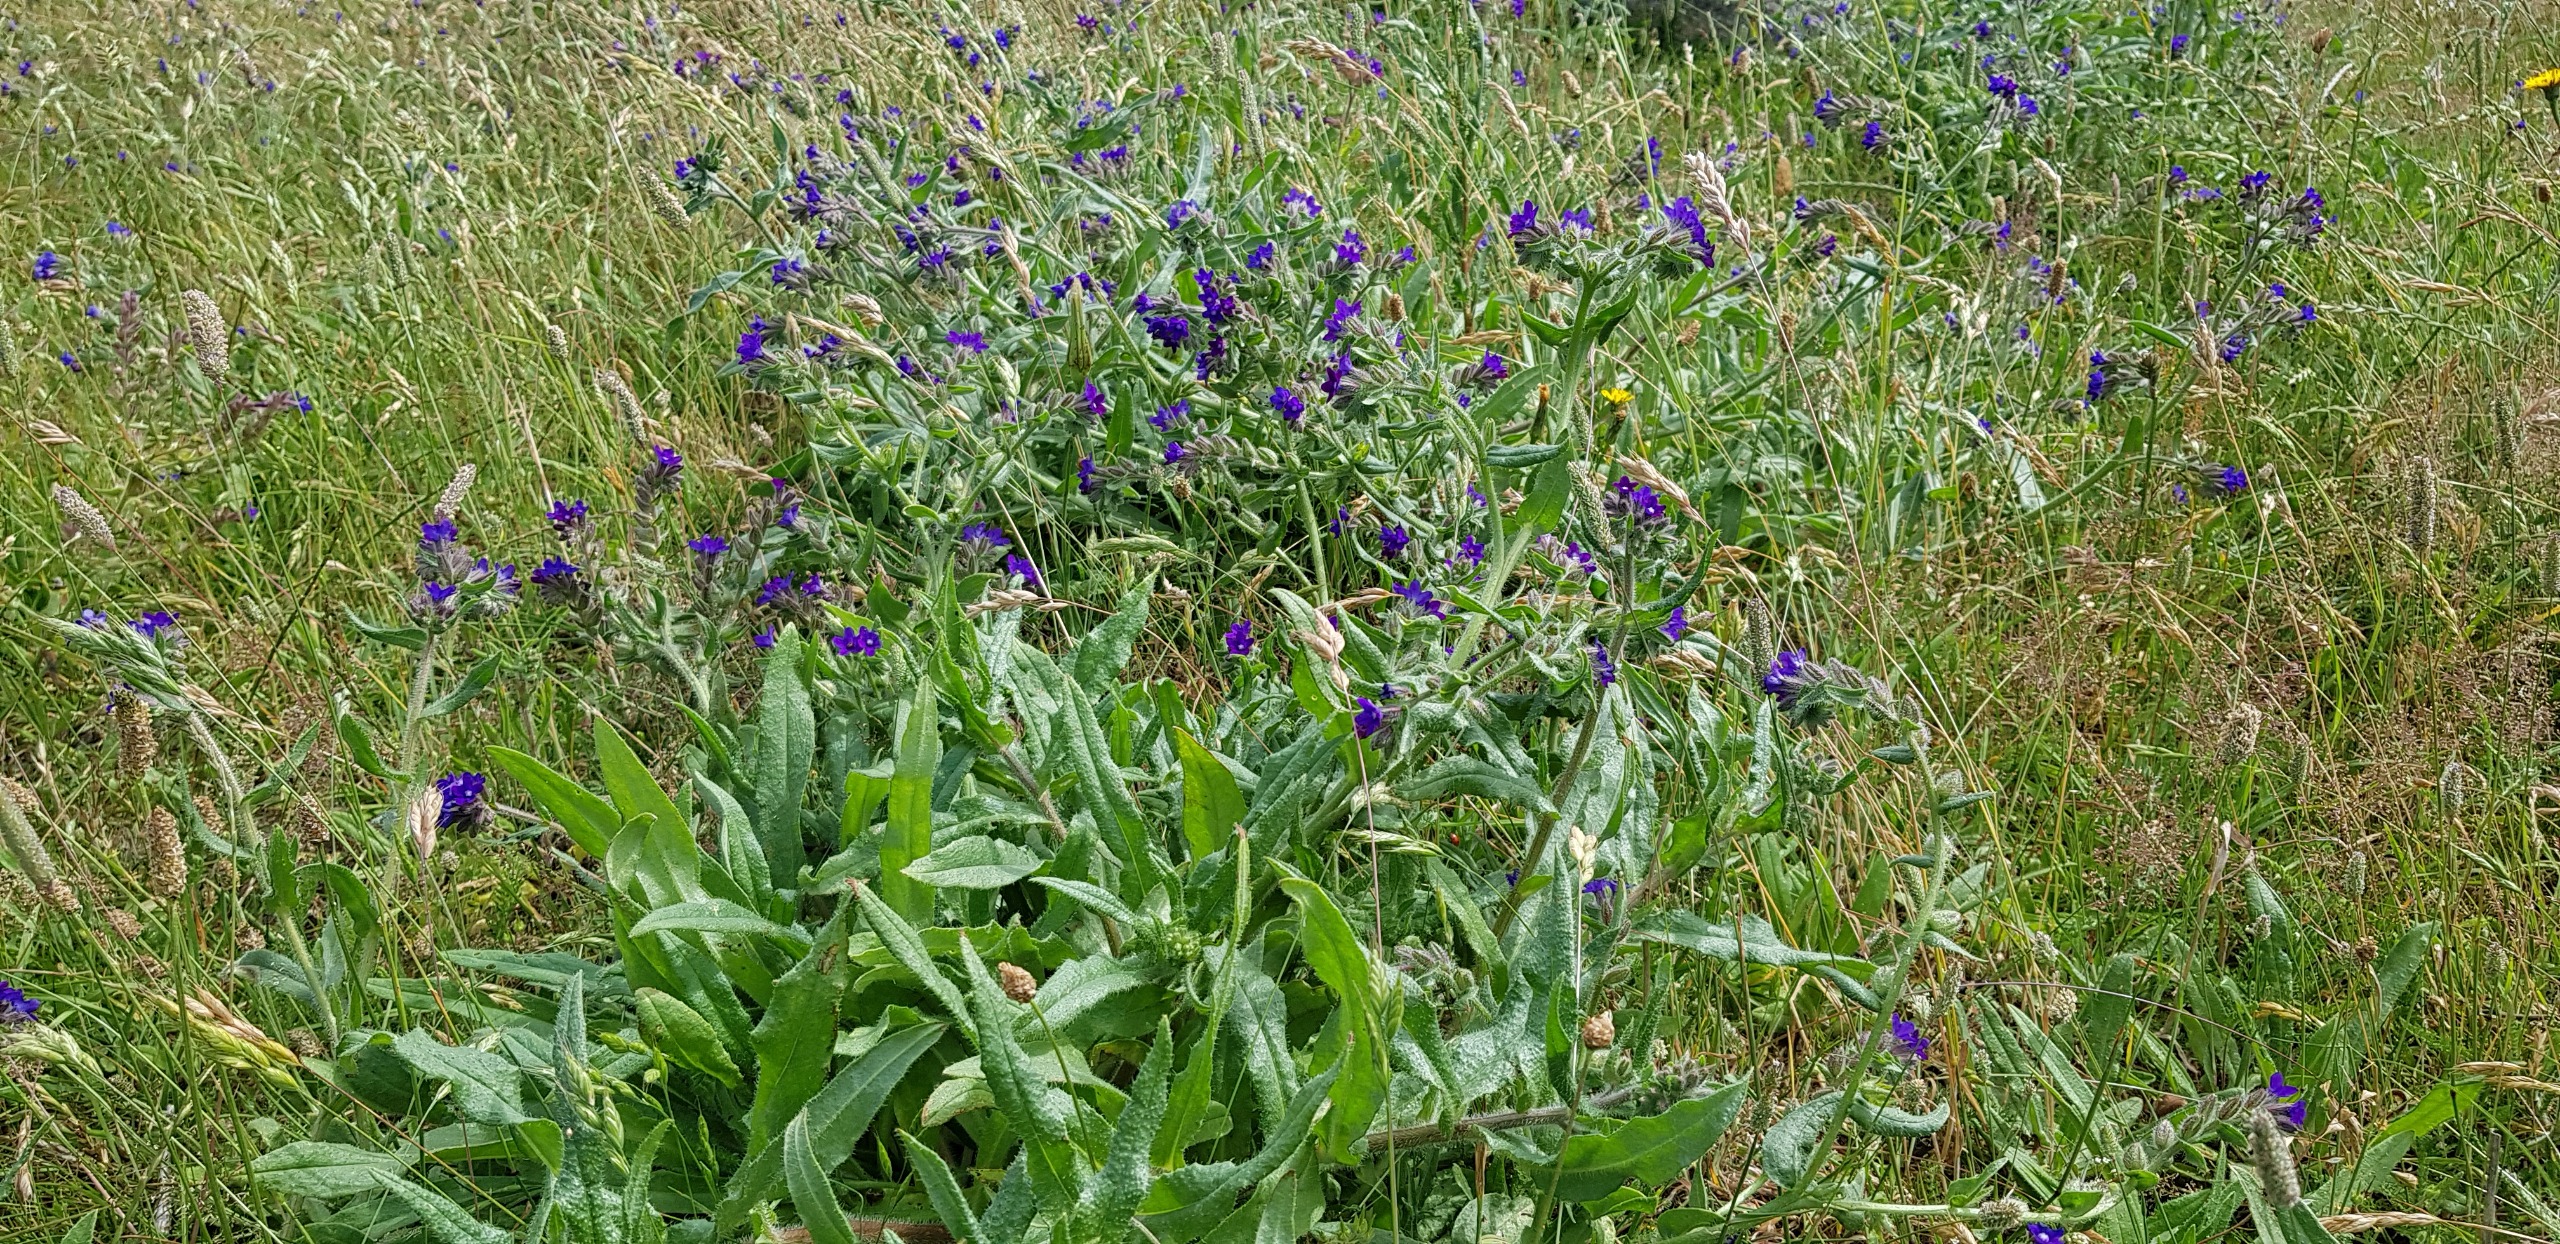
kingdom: Plantae
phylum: Tracheophyta
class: Magnoliopsida
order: Boraginales
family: Boraginaceae
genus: Anchusa
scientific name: Anchusa officinalis
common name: Læge-oksetunge
